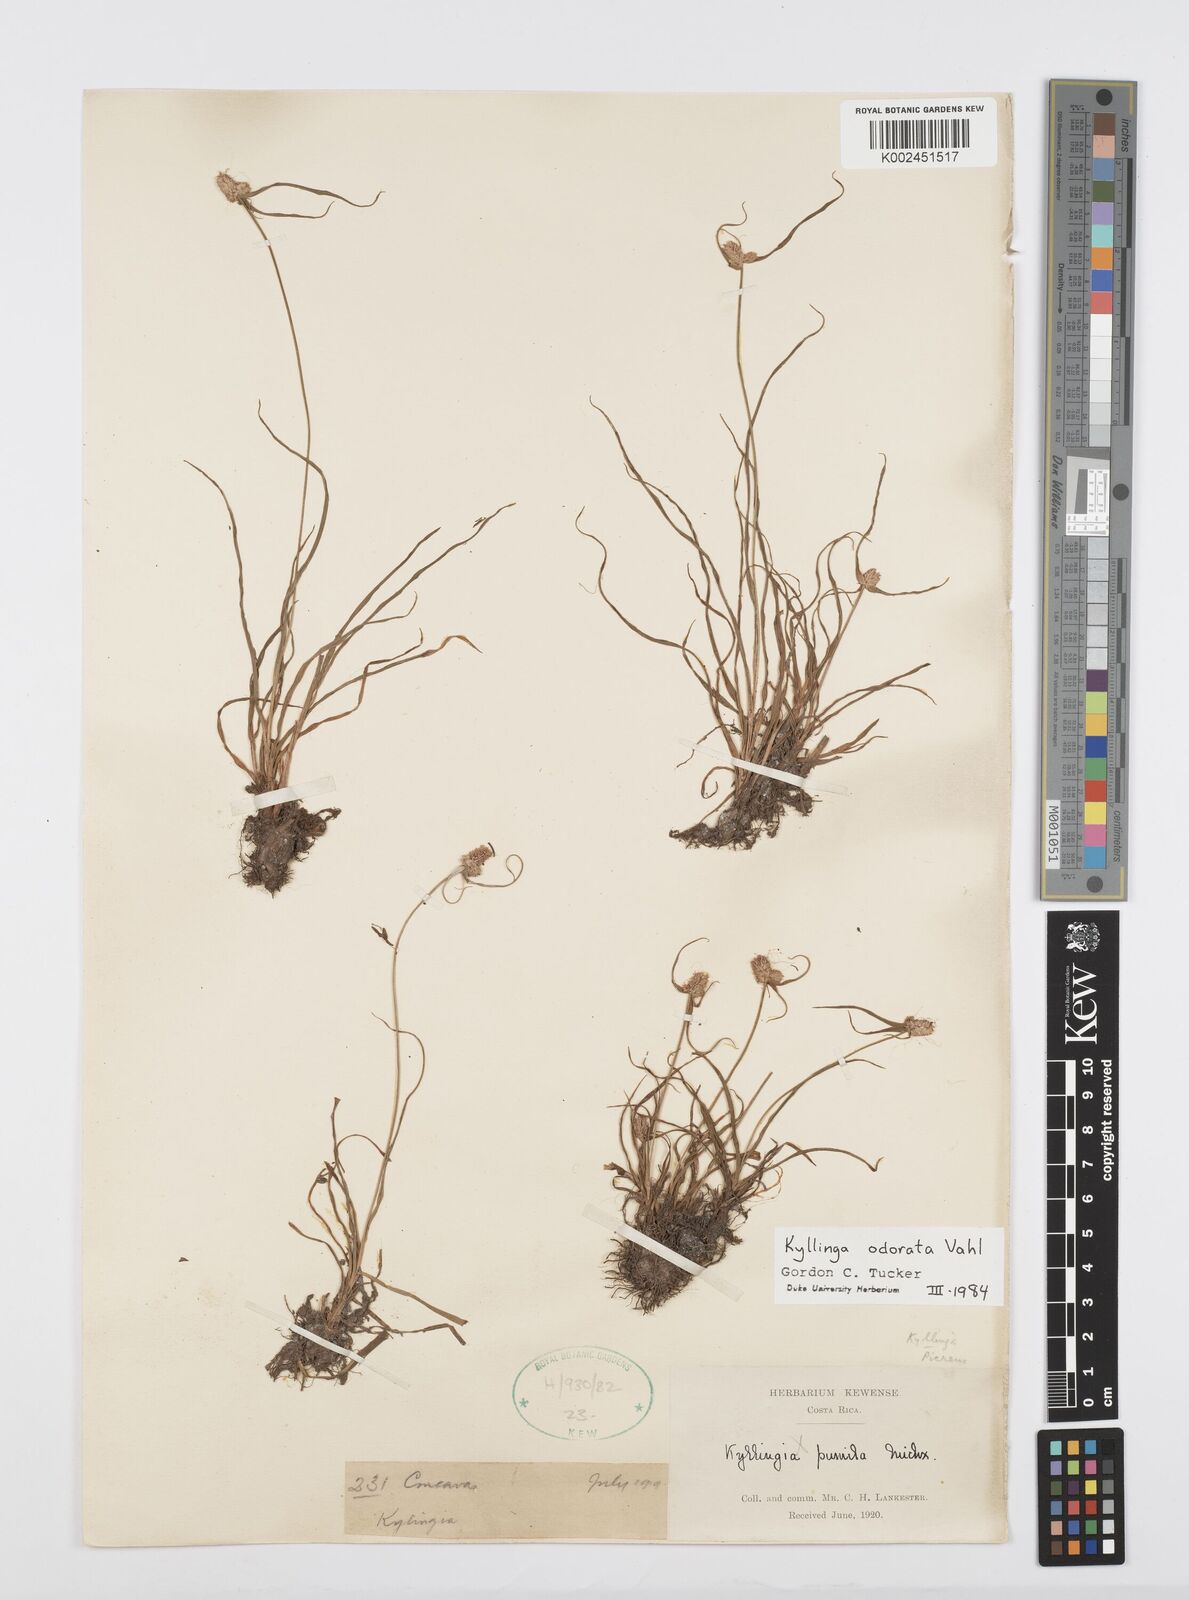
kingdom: Plantae
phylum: Tracheophyta
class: Liliopsida
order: Poales
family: Cyperaceae
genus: Cyperus
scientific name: Cyperus sesquiflorus
